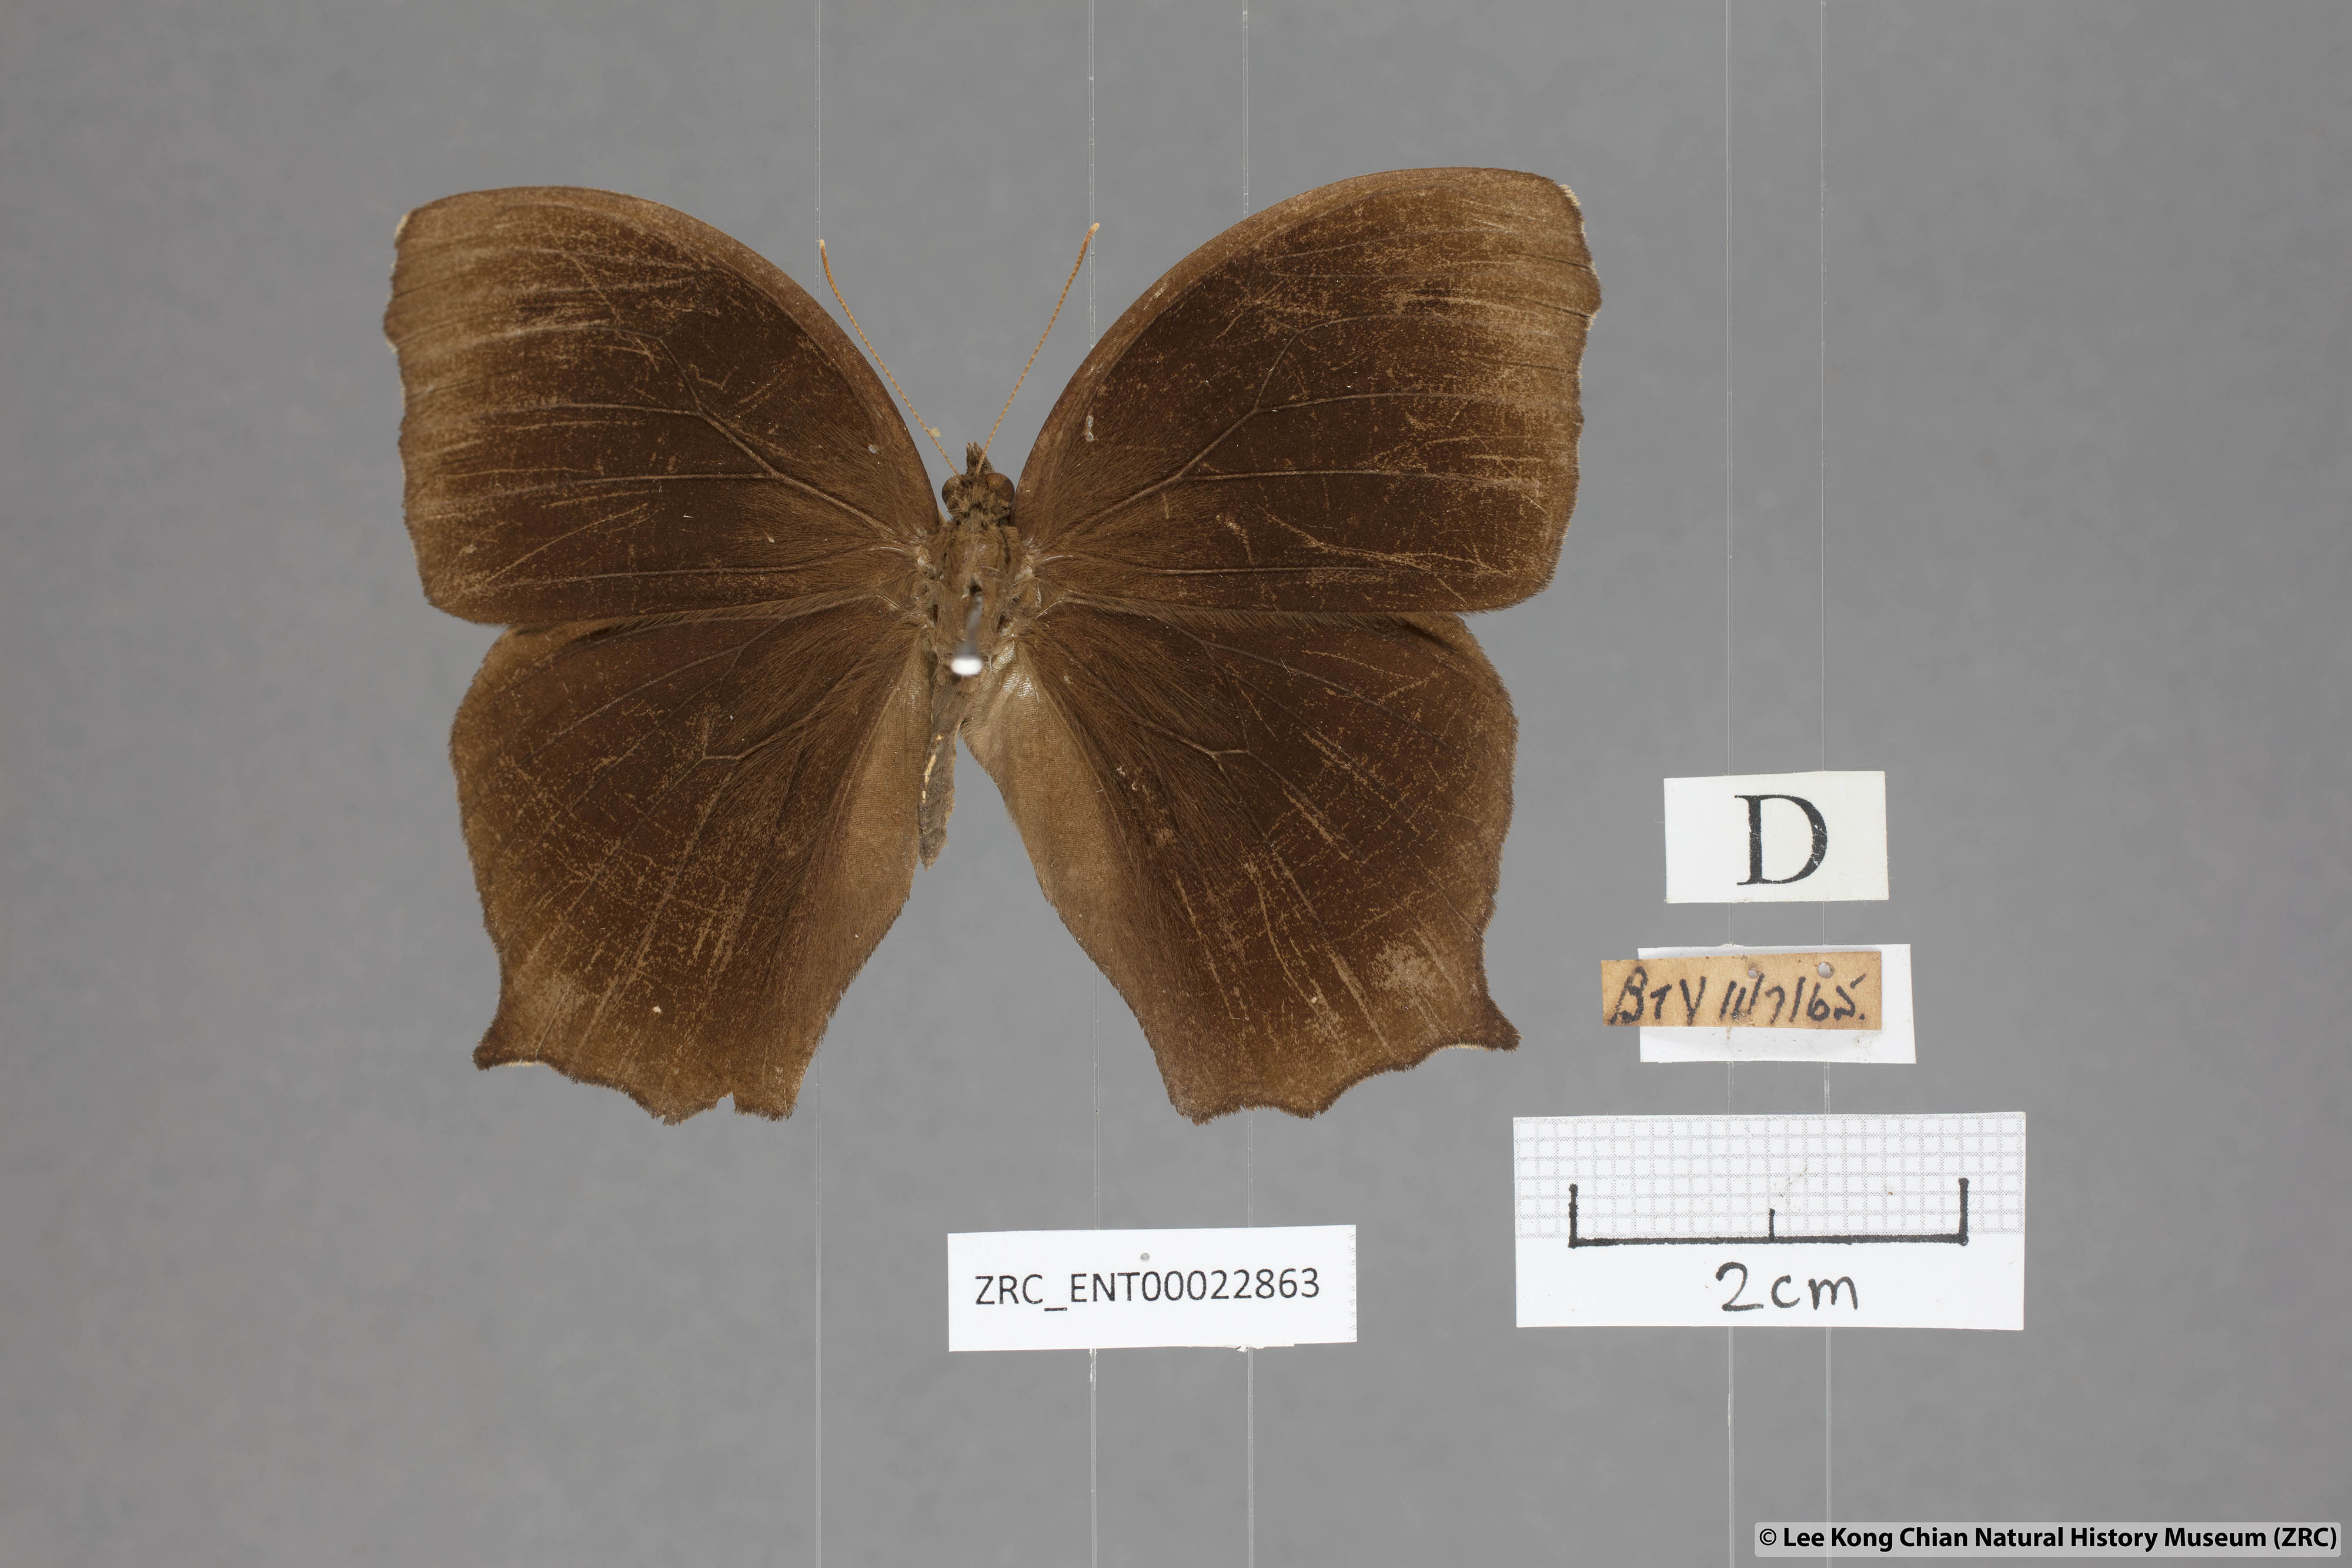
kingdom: Animalia
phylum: Arthropoda
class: Insecta
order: Lepidoptera
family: Nymphalidae
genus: Melanitis
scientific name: Melanitis phedima
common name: Dark evening brown
